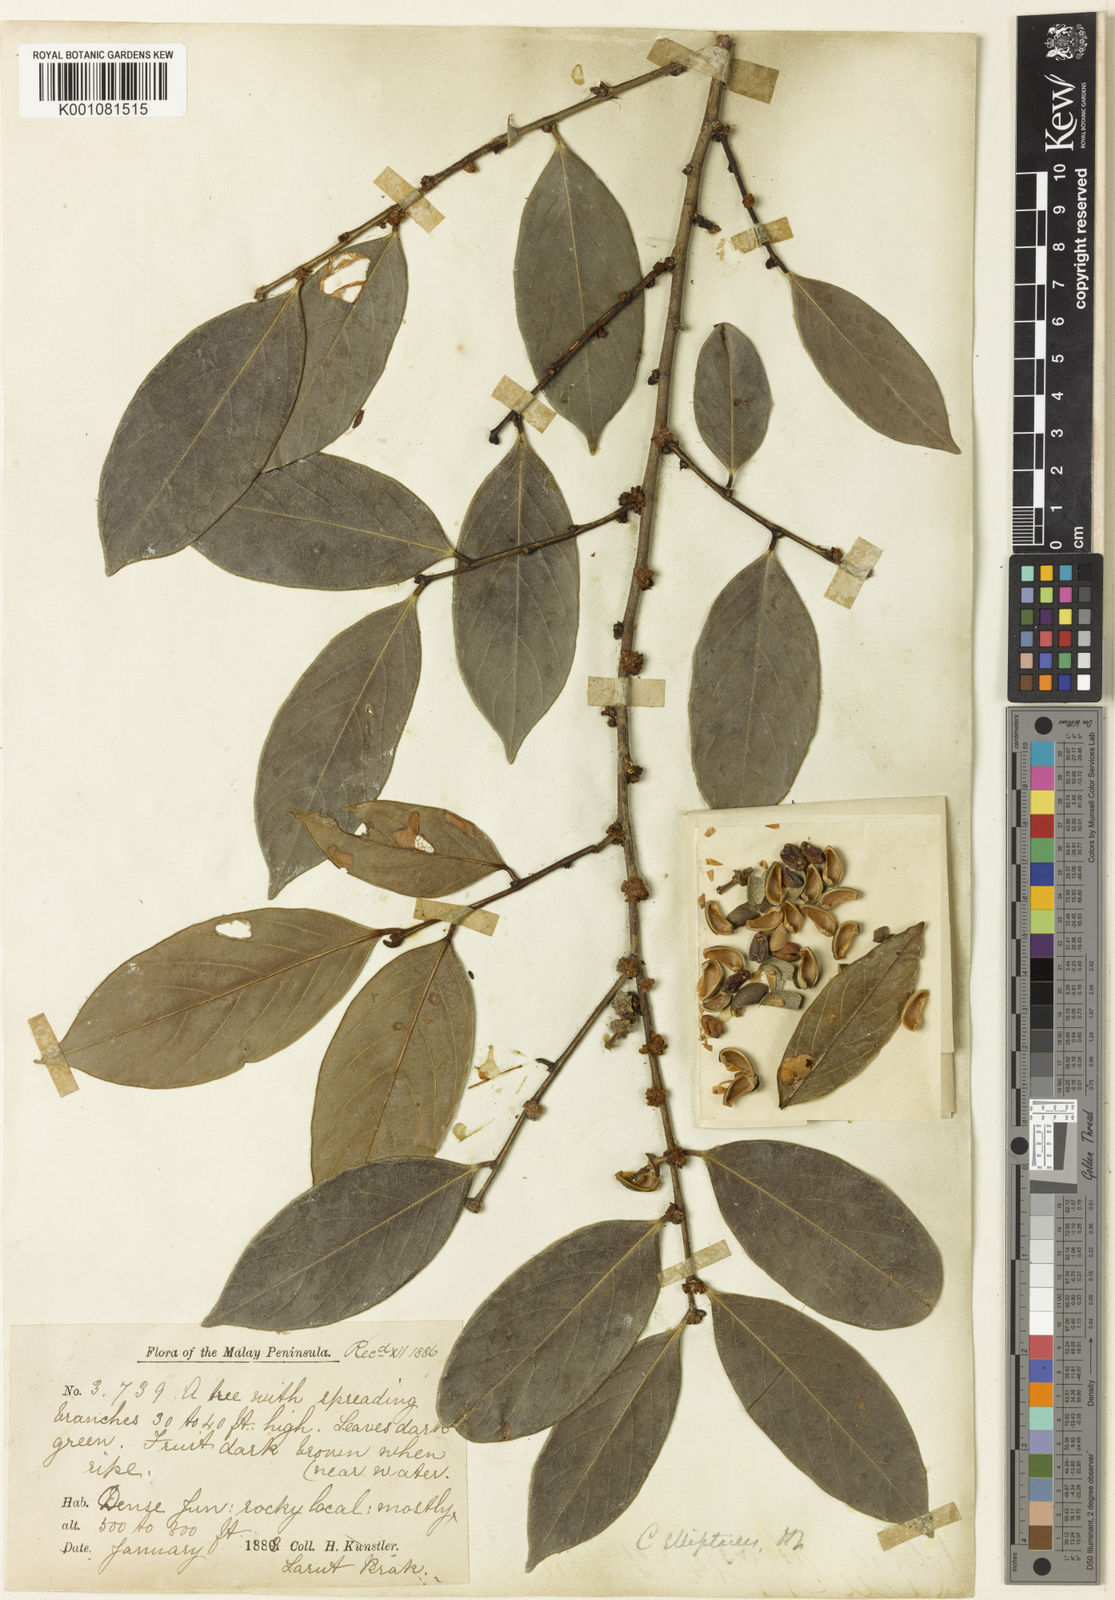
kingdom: Plantae
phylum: Tracheophyta
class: Magnoliopsida
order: Malpighiales
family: Phyllanthaceae
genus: Cleistanthus
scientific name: Cleistanthus ellipticus
